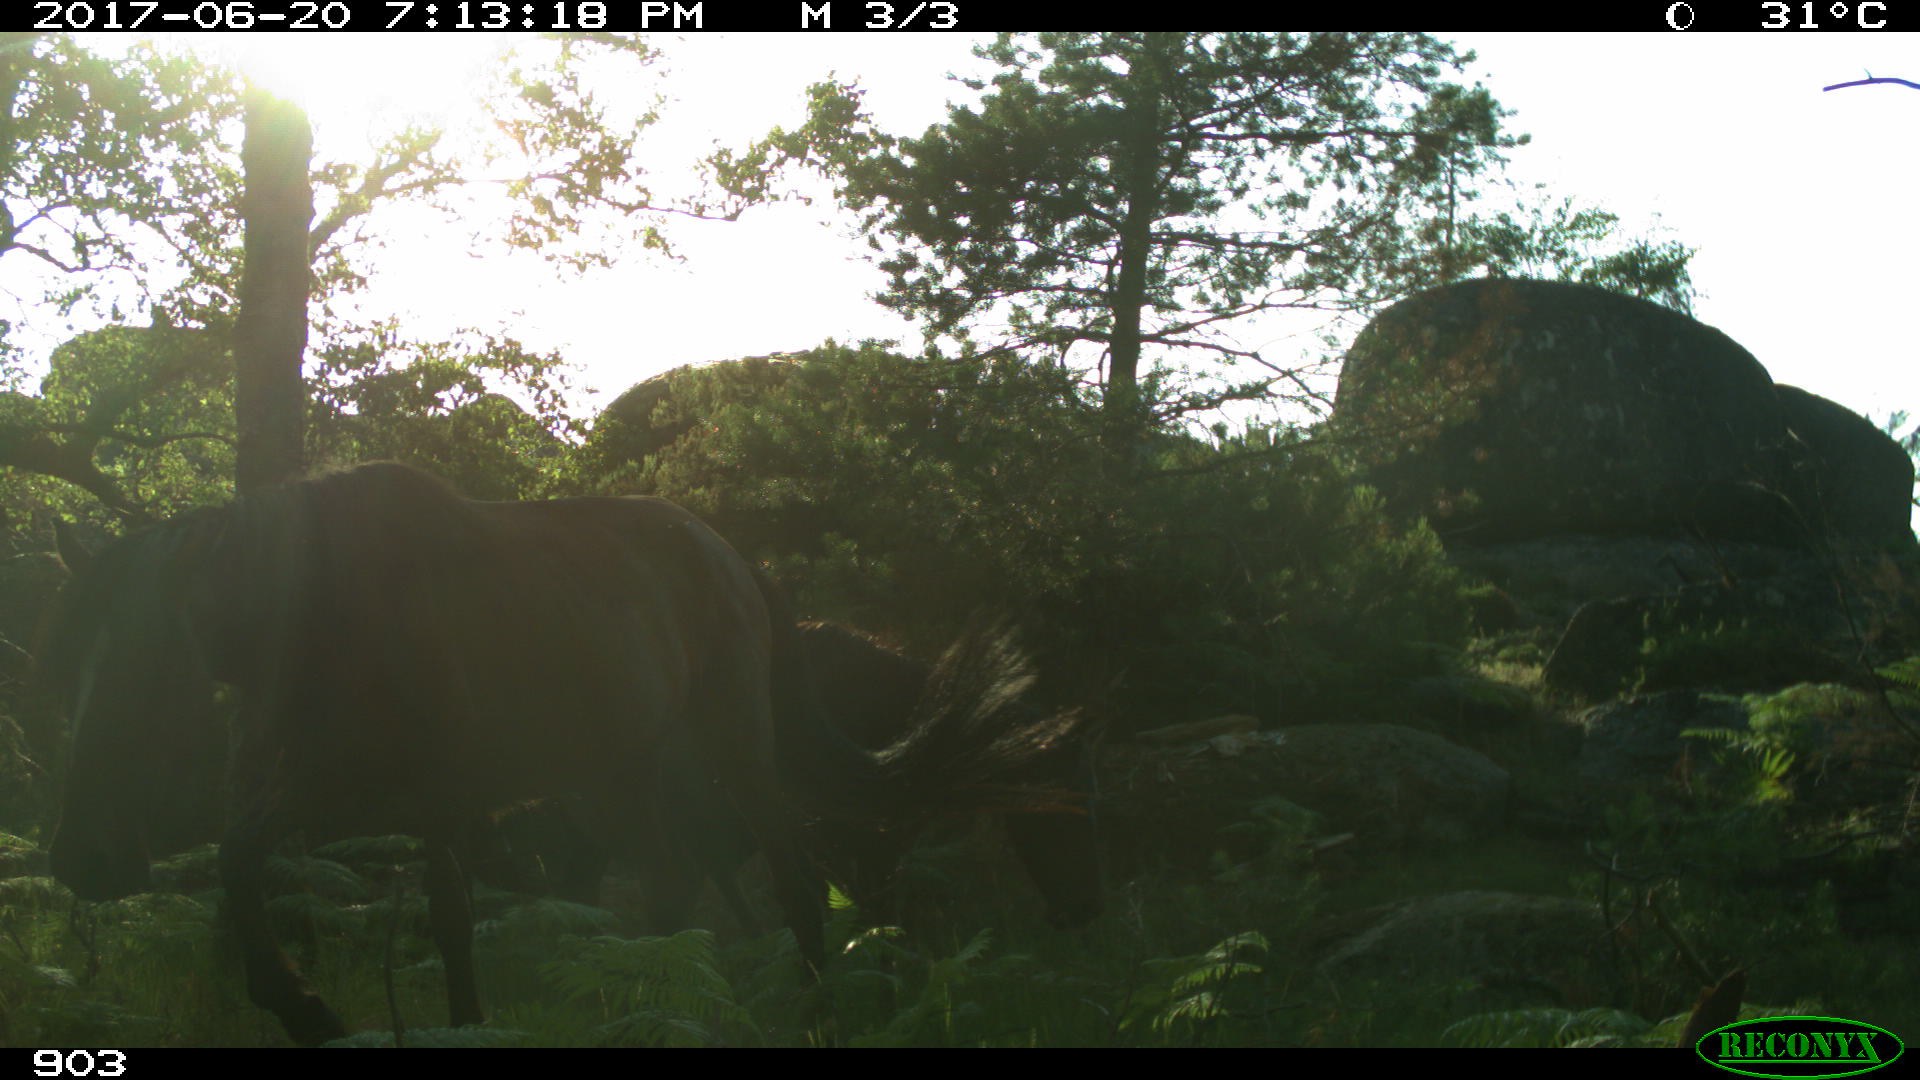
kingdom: Animalia
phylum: Chordata
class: Mammalia
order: Perissodactyla
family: Equidae
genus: Equus
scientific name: Equus caballus
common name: Horse
